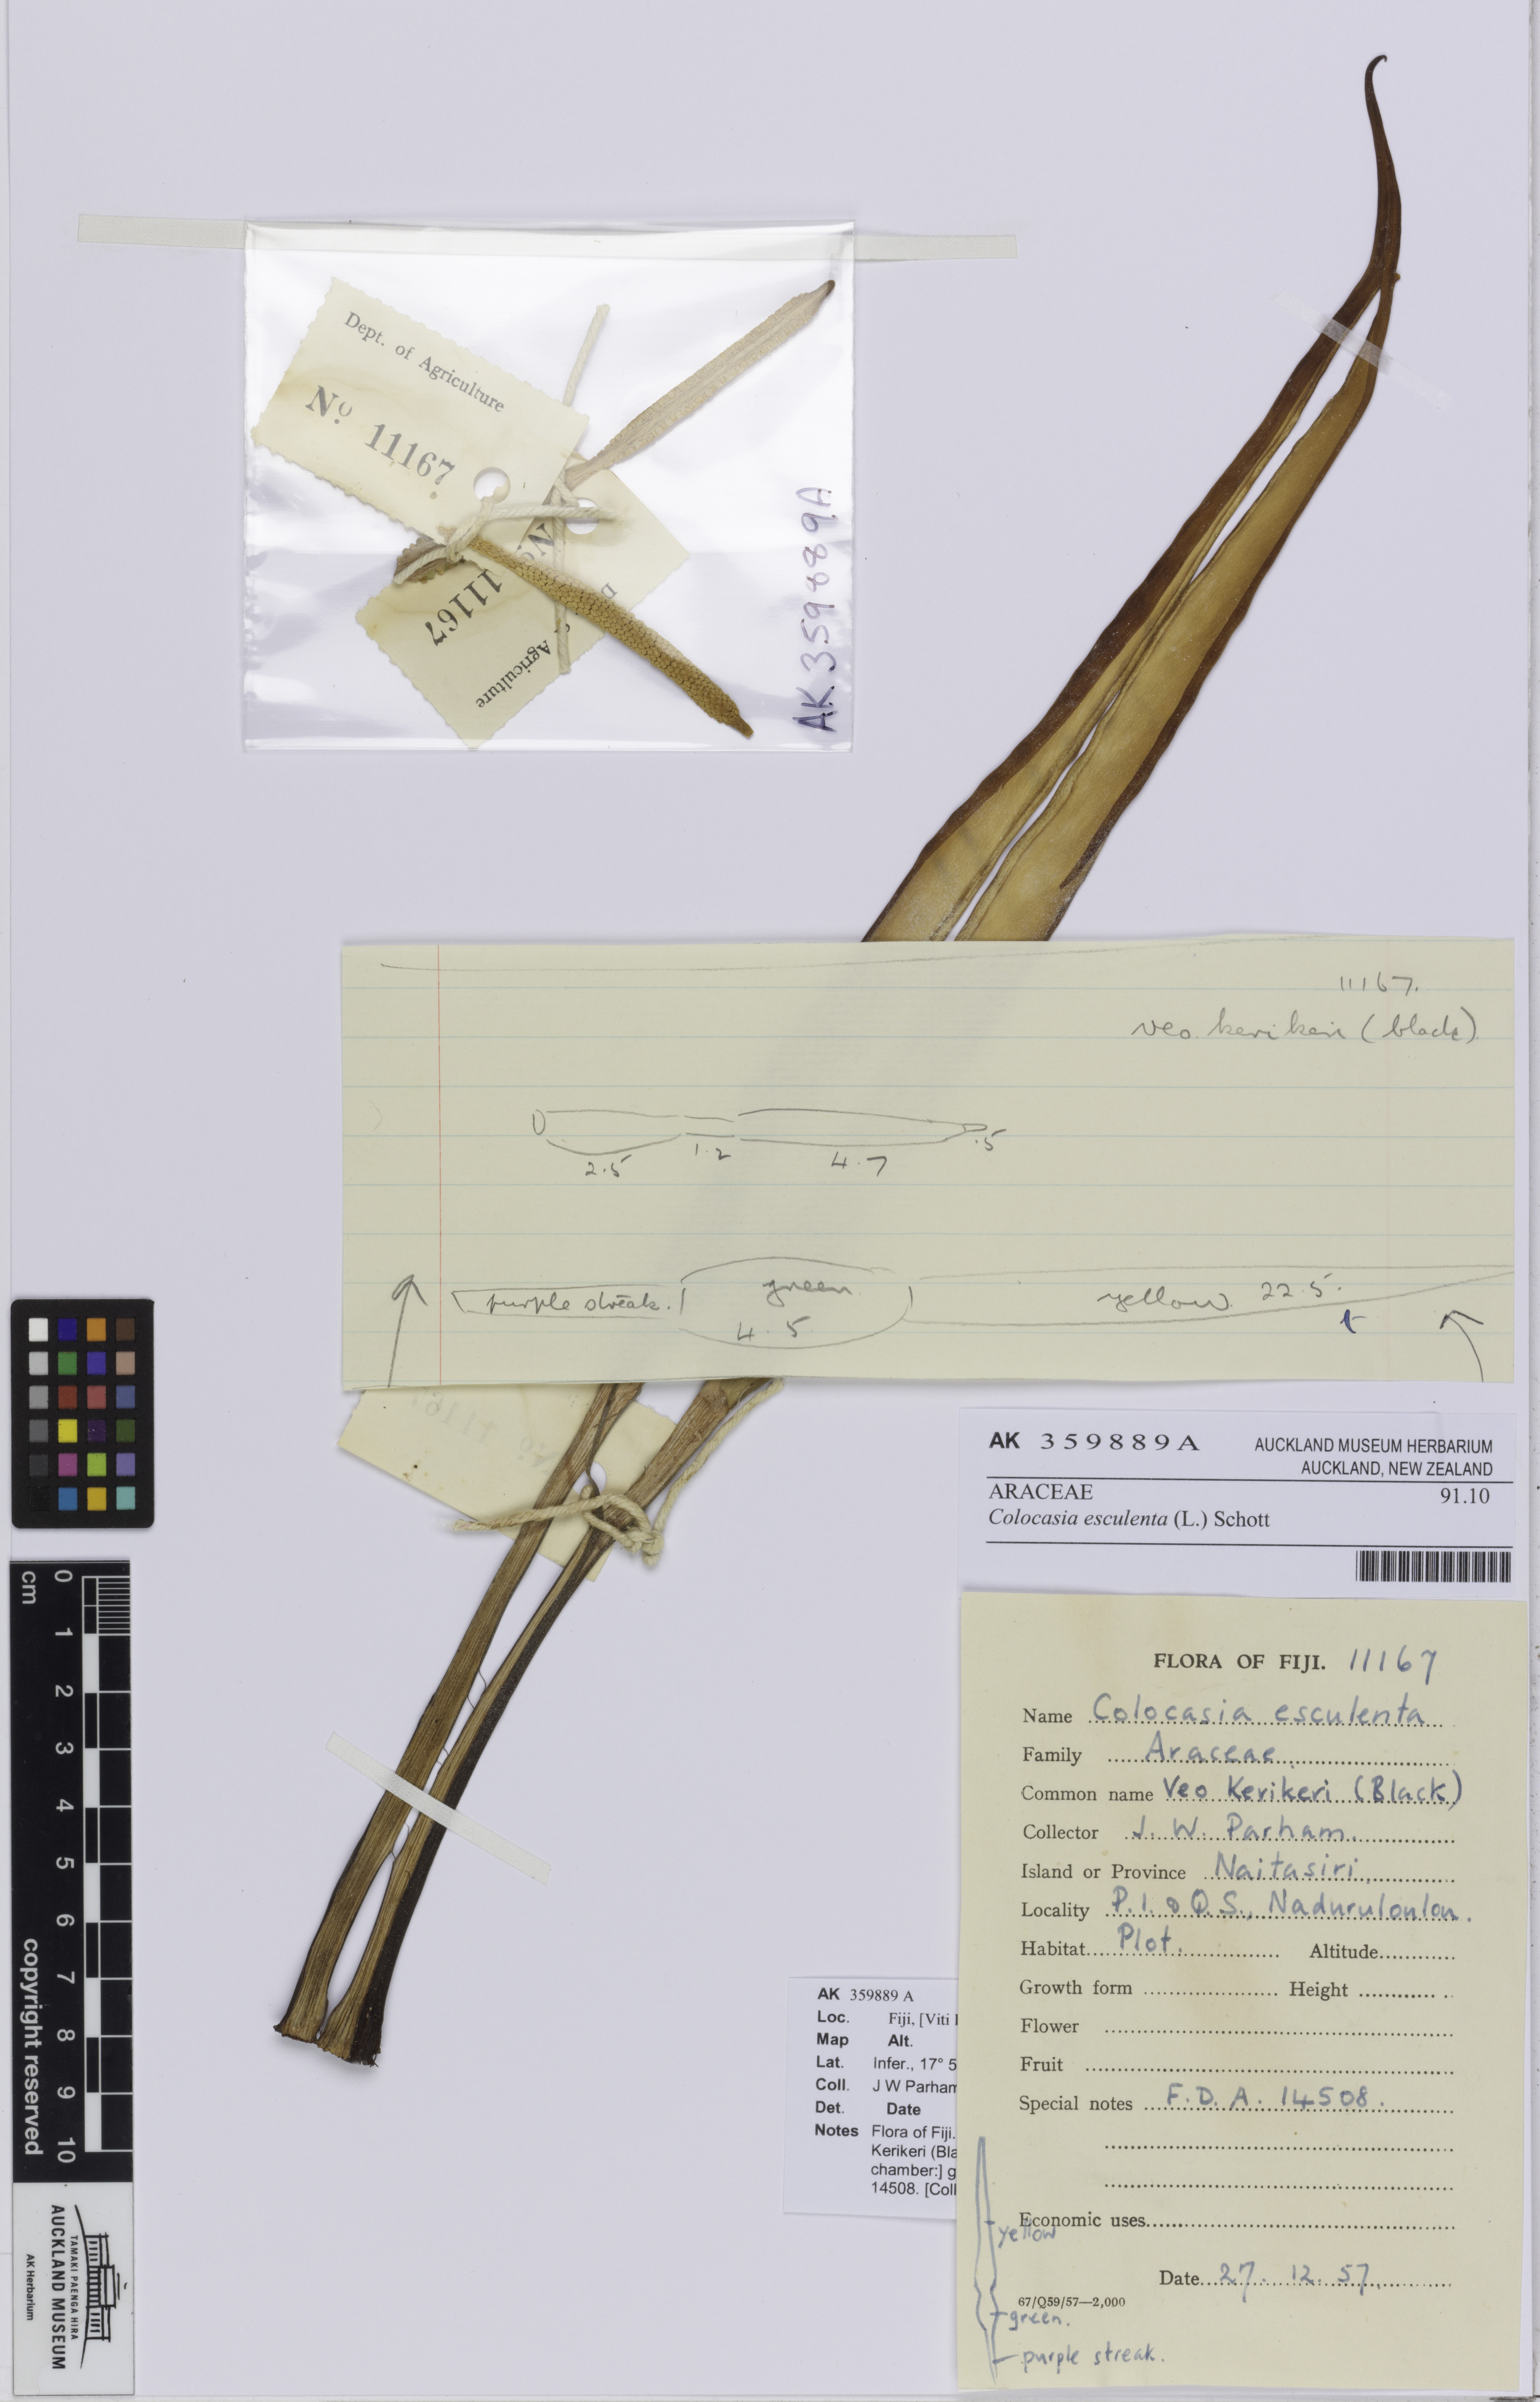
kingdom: Plantae
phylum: Tracheophyta
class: Liliopsida
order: Alismatales
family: Araceae
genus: Colocasia
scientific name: Colocasia esculenta
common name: Taro
